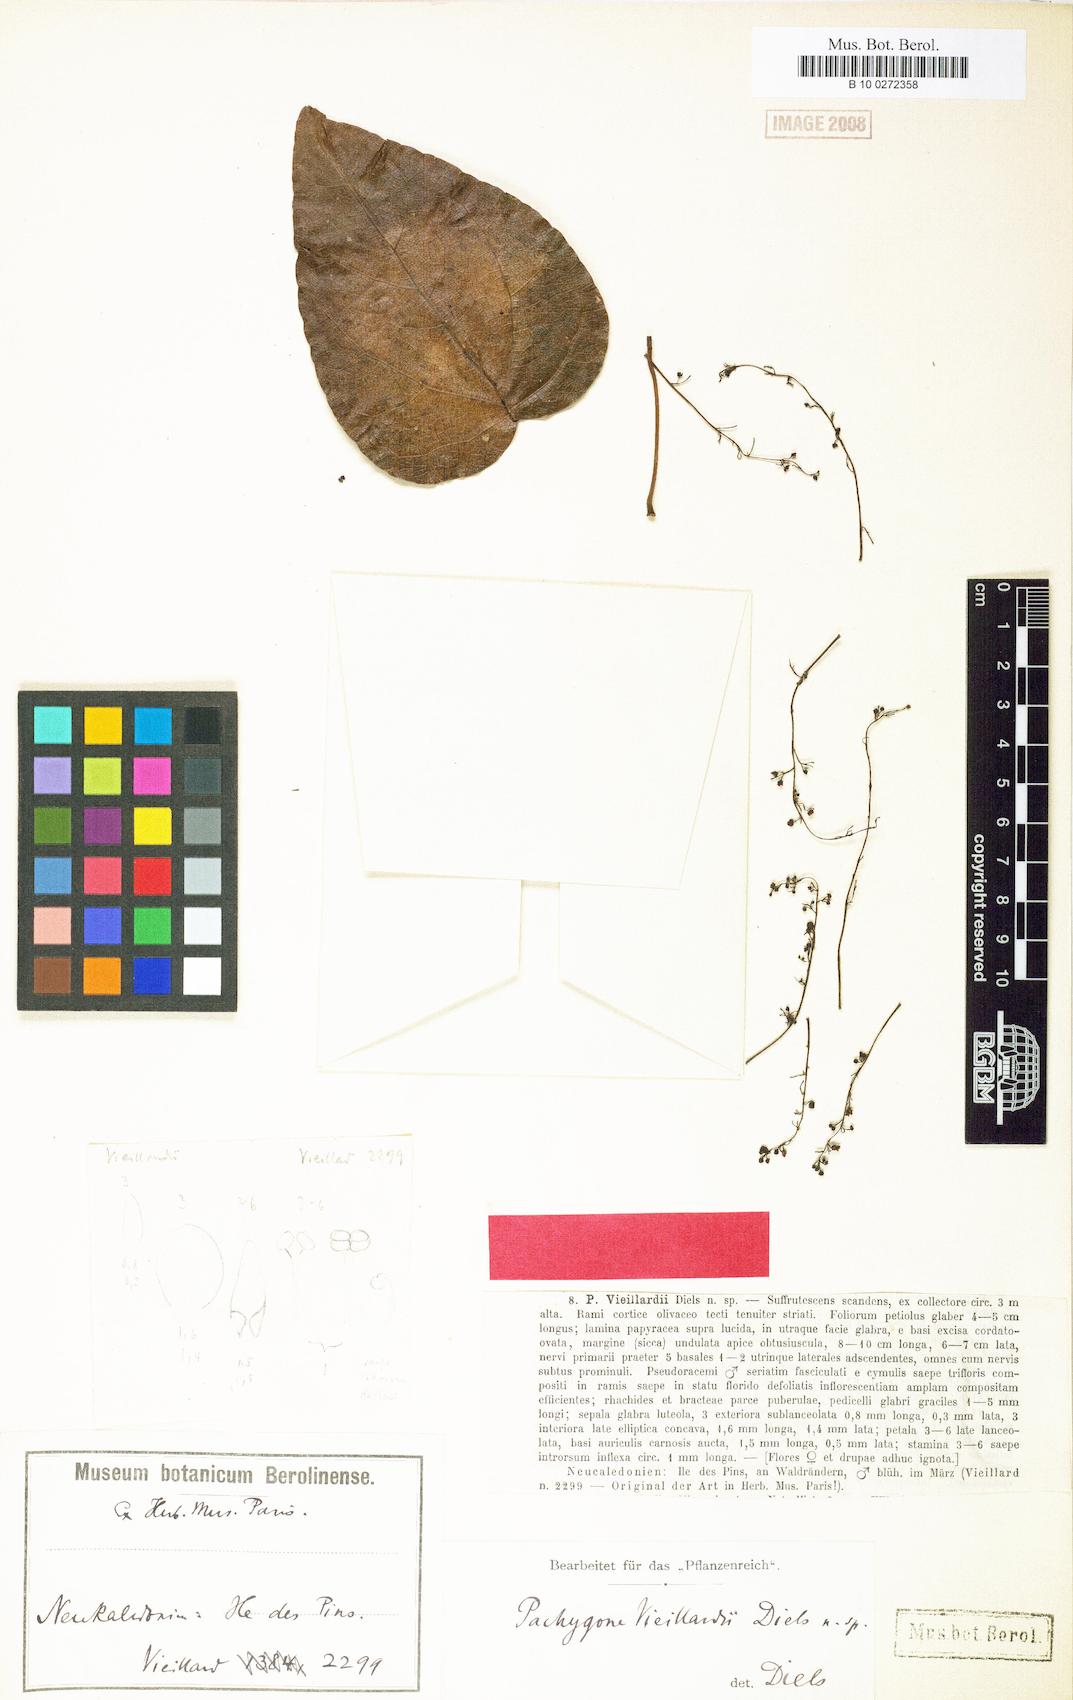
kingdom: Plantae
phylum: Tracheophyta
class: Magnoliopsida
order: Ranunculales
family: Menispermaceae
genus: Pachygone
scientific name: Pachygone loyaltiensis
